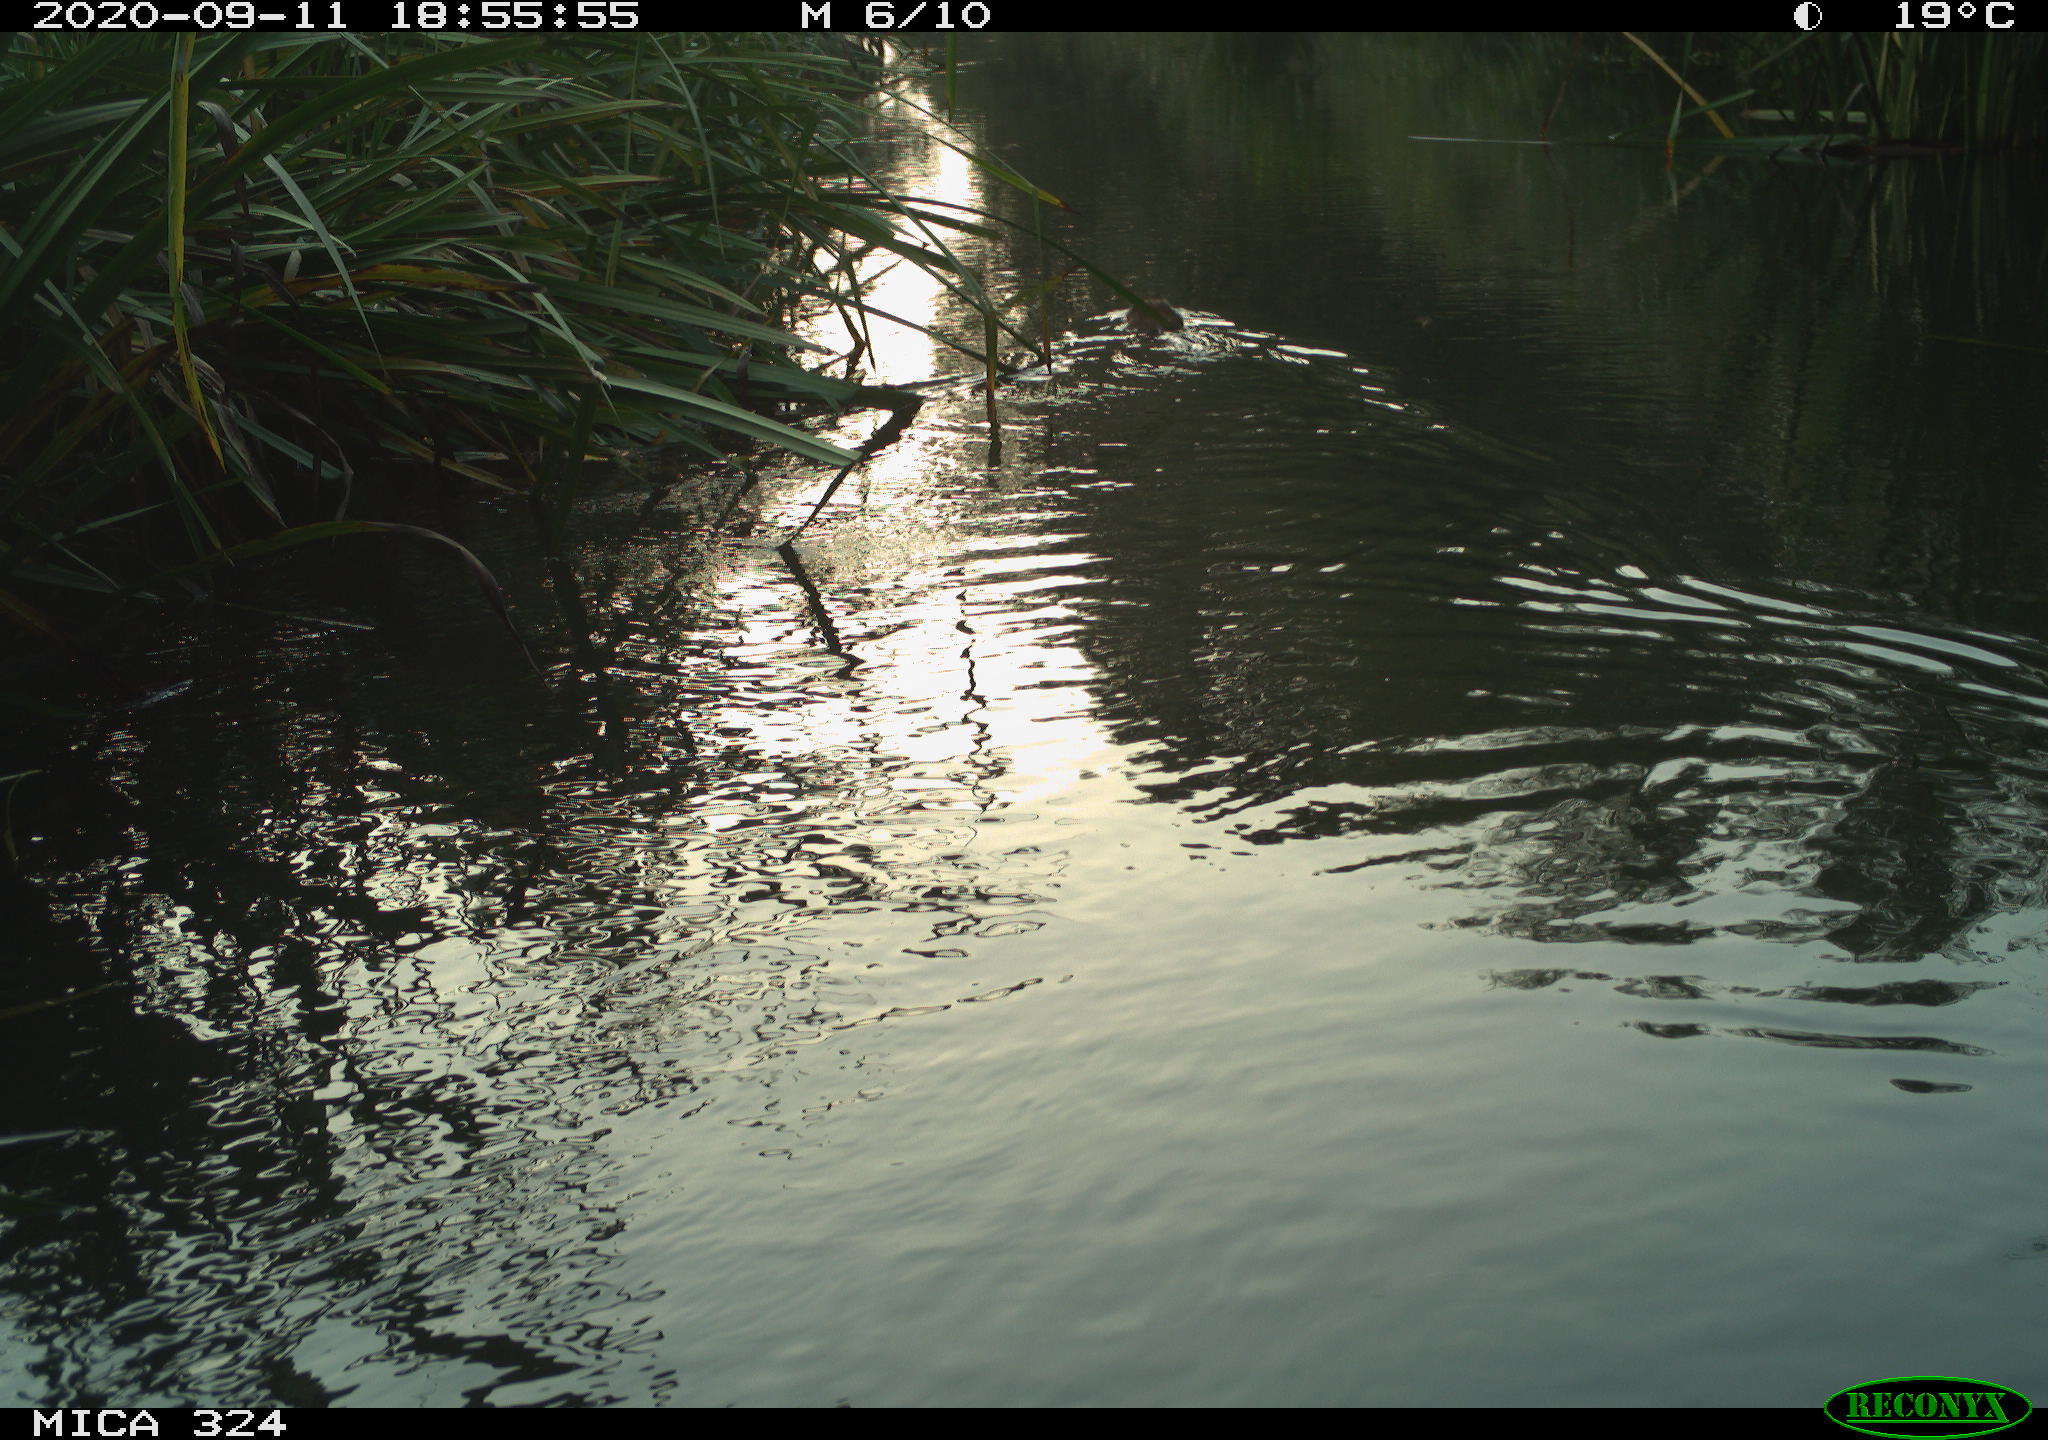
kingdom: Animalia
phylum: Chordata
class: Mammalia
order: Rodentia
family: Cricetidae
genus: Ondatra
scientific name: Ondatra zibethicus
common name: Muskrat
